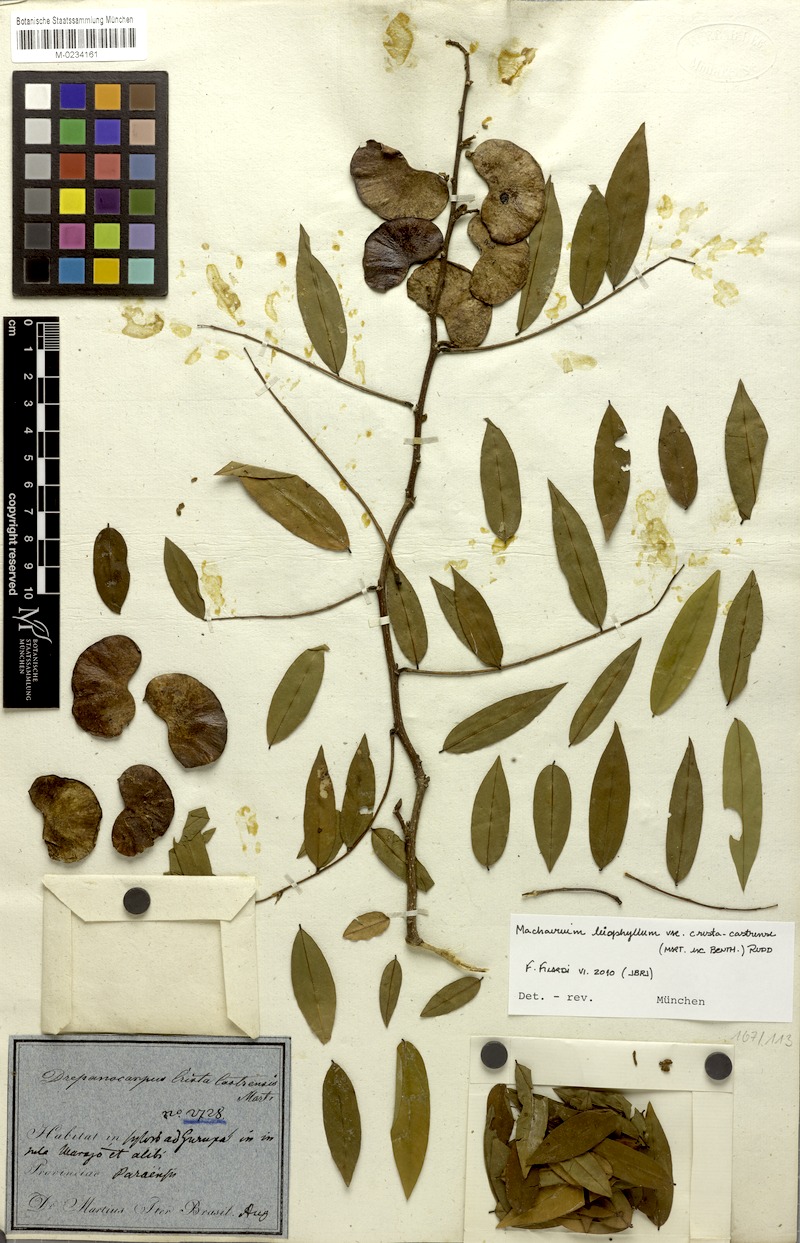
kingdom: Plantae
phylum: Tracheophyta
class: Magnoliopsida
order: Fabales
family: Fabaceae
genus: Machaerium
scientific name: Machaerium leiophyllum
